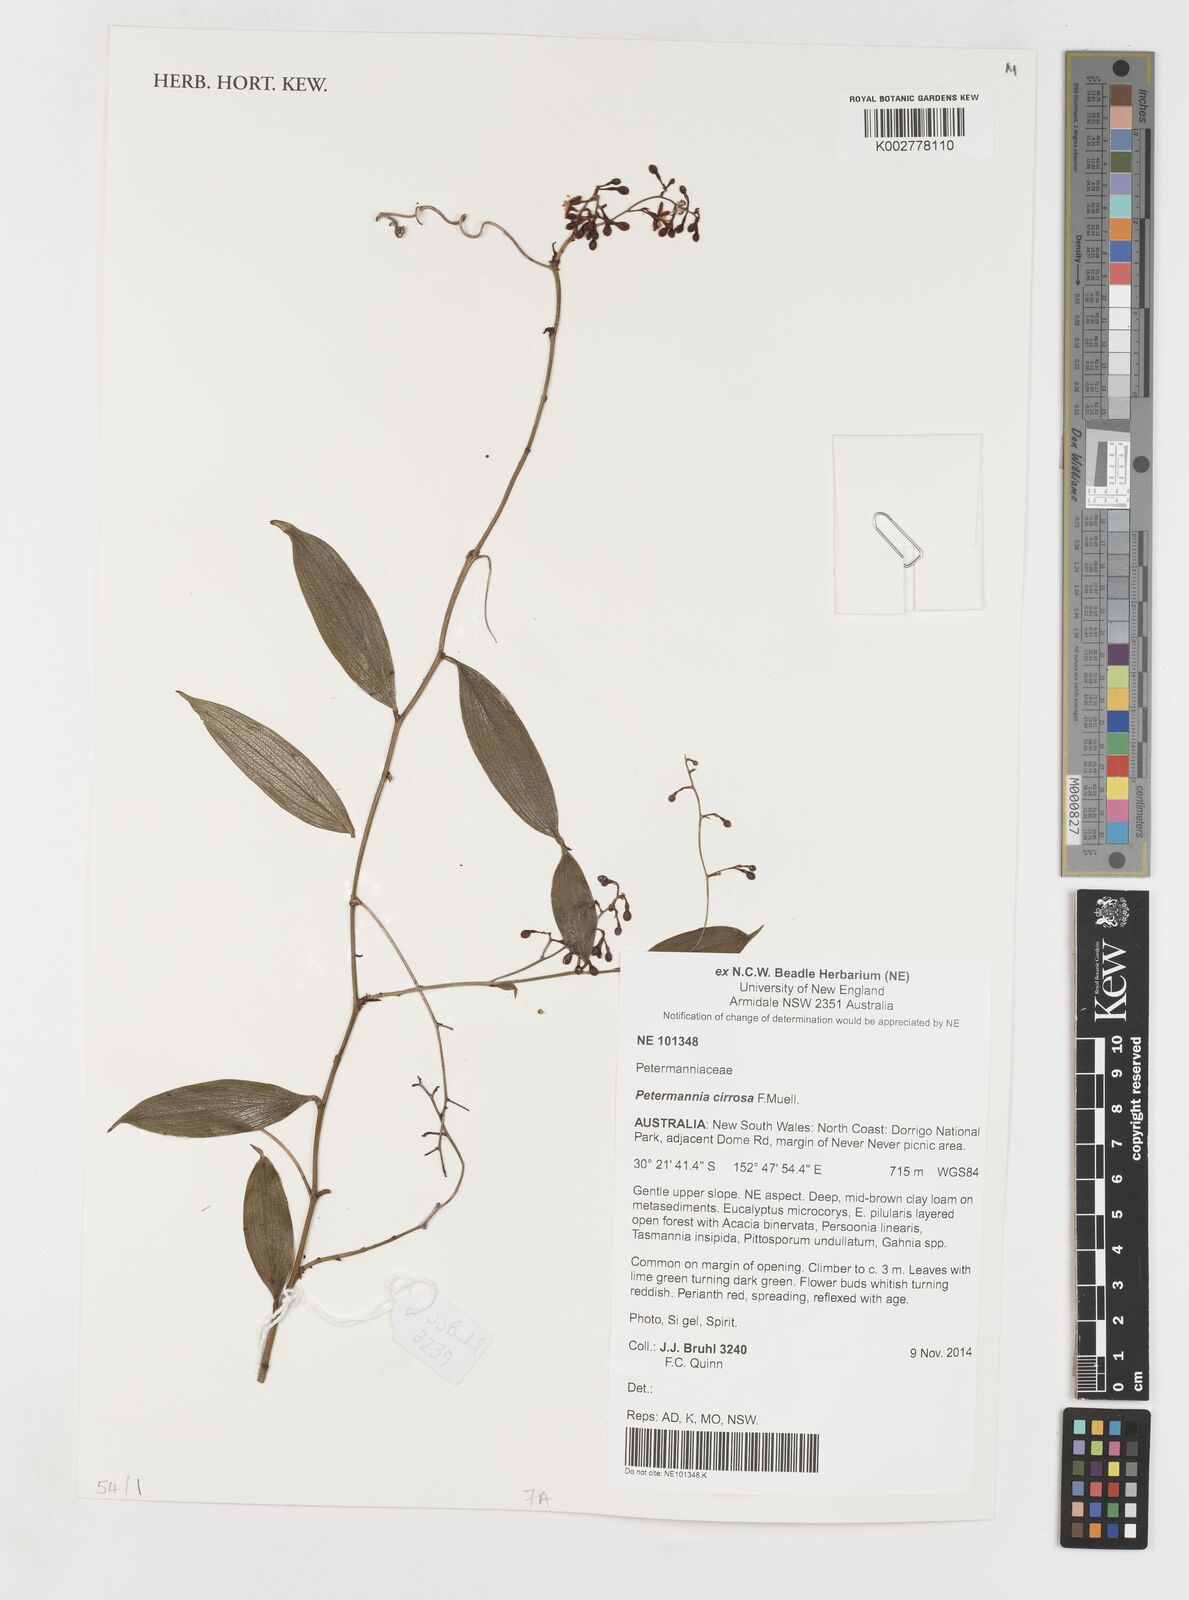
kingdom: Plantae
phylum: Tracheophyta
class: Liliopsida
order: Liliales
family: Petermanniaceae
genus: Petermannia
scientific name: Petermannia cirrosa
